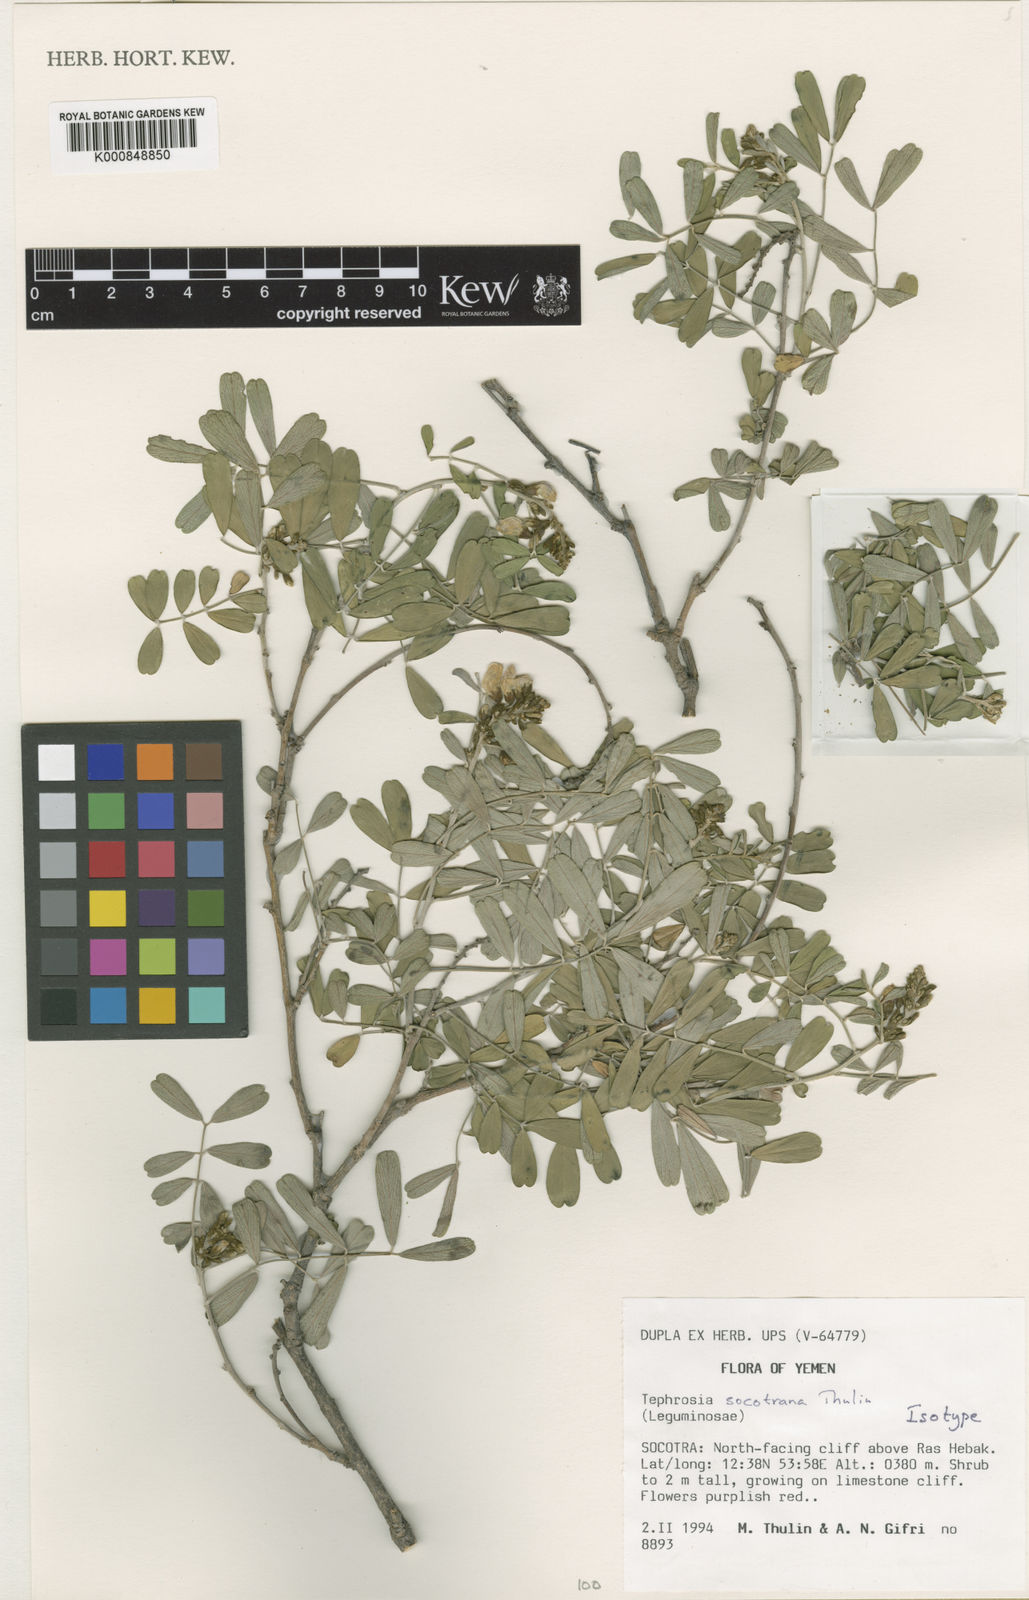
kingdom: Plantae
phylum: Tracheophyta
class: Magnoliopsida
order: Fabales
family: Fabaceae
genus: Tephrosia
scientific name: Tephrosia socotrana
